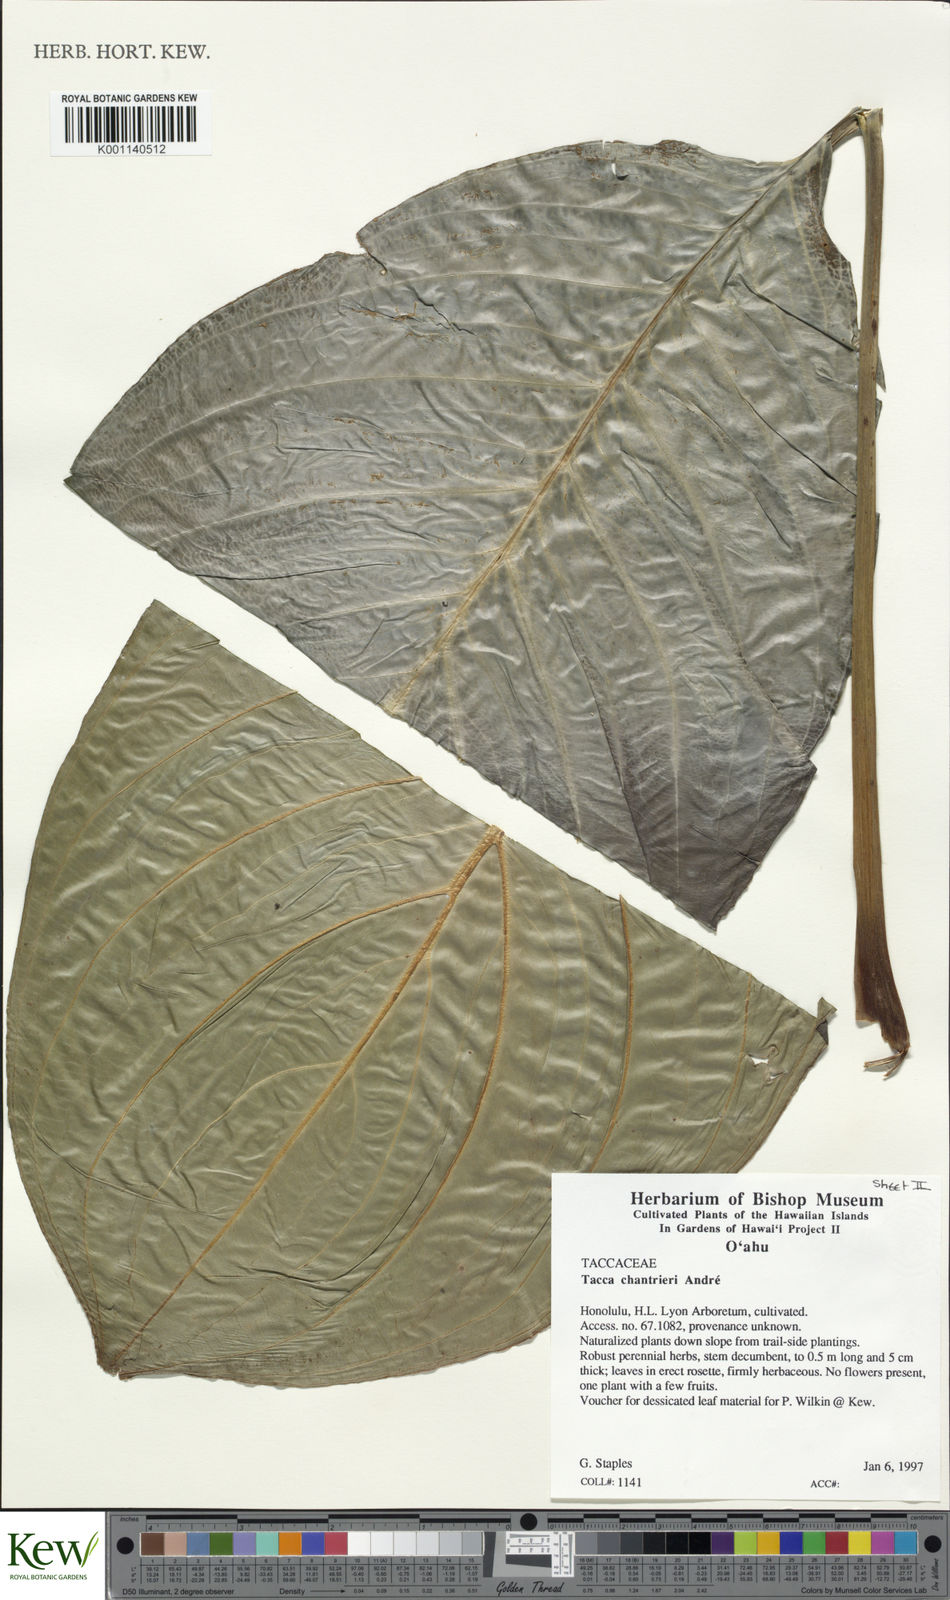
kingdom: Plantae
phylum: Tracheophyta
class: Liliopsida
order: Dioscoreales
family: Dioscoreaceae
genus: Tacca
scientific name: Tacca
